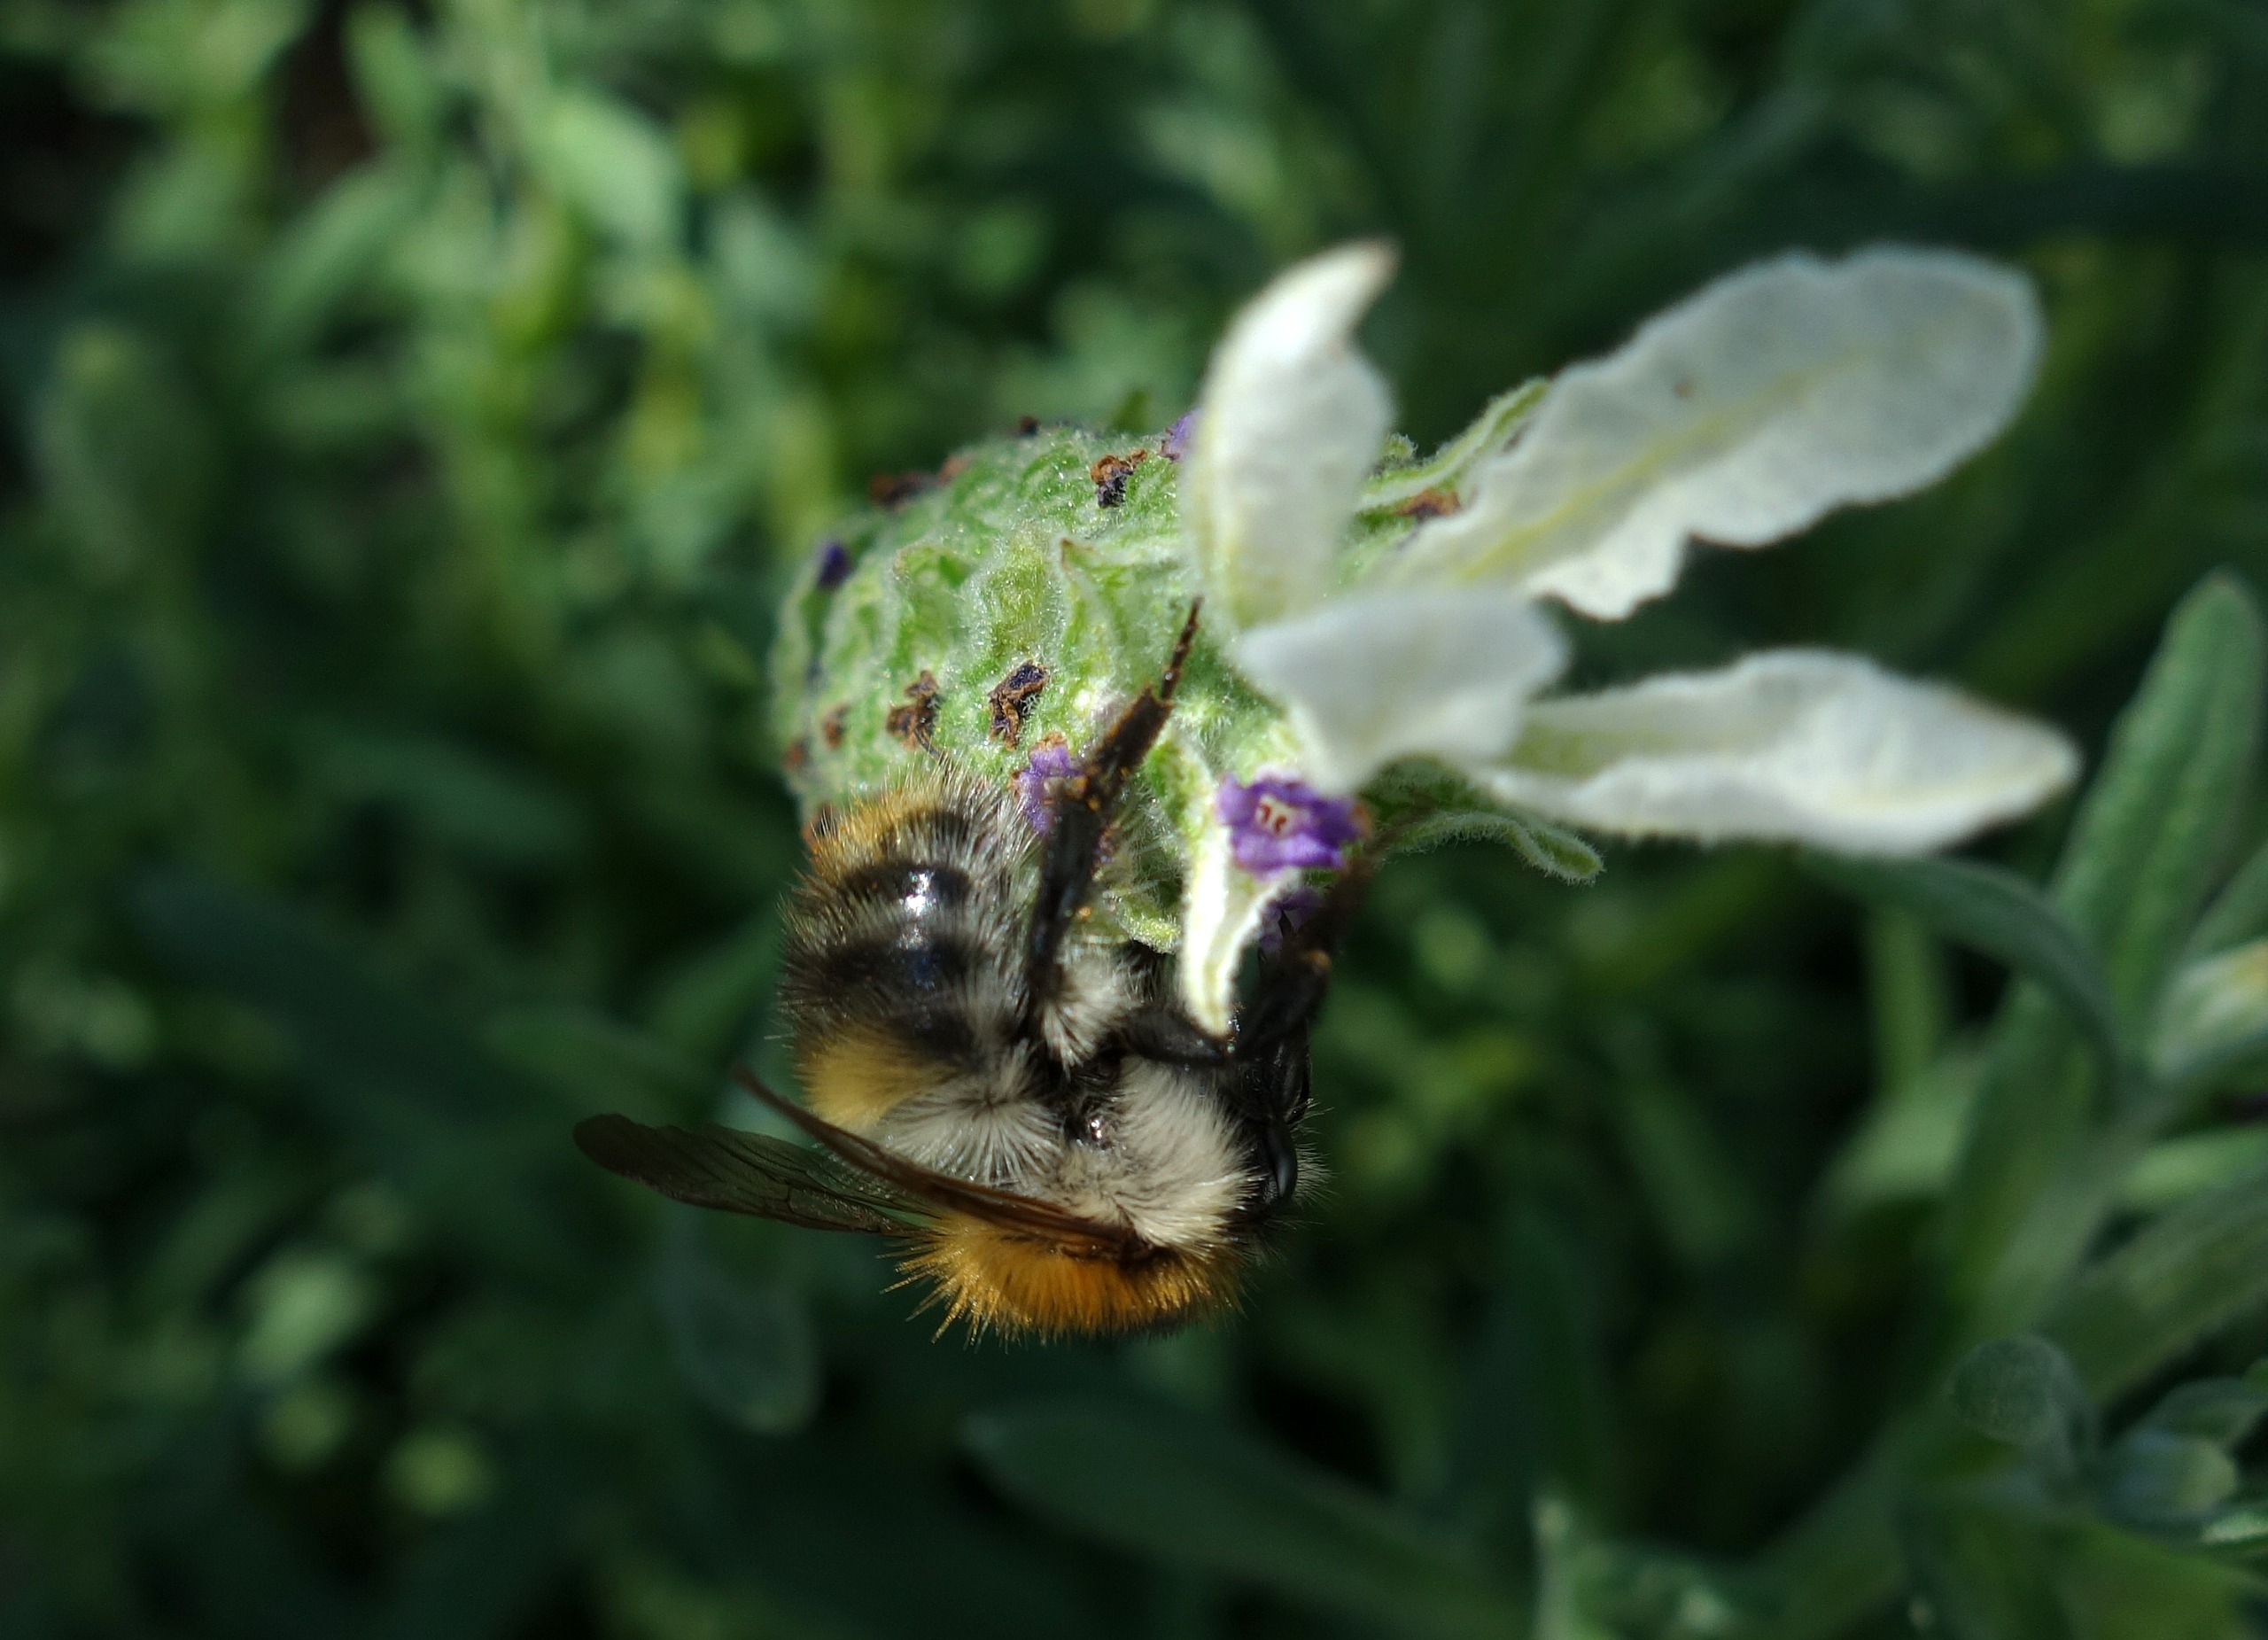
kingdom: Animalia
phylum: Arthropoda
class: Insecta
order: Hymenoptera
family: Apidae
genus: Bombus
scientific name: Bombus pascuorum
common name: Agerhumle
